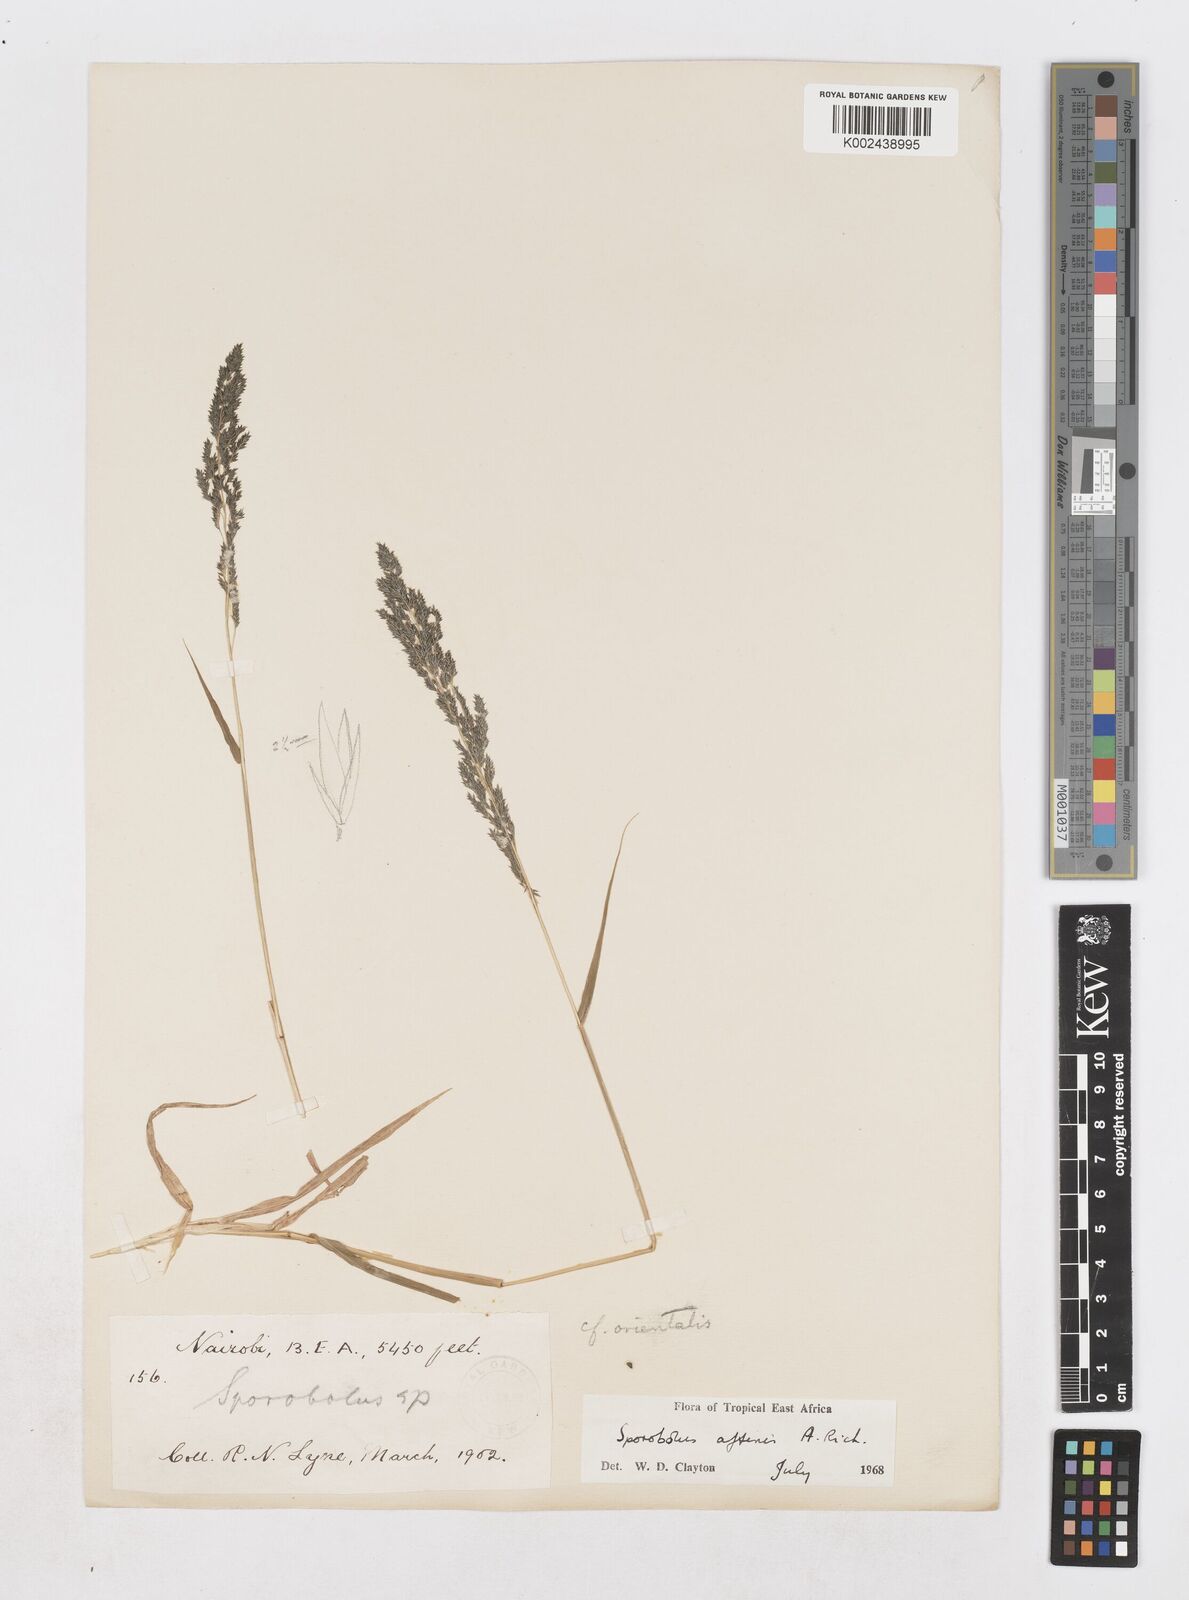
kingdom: Plantae
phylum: Tracheophyta
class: Liliopsida
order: Poales
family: Poaceae
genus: Sporobolus
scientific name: Sporobolus confinis
